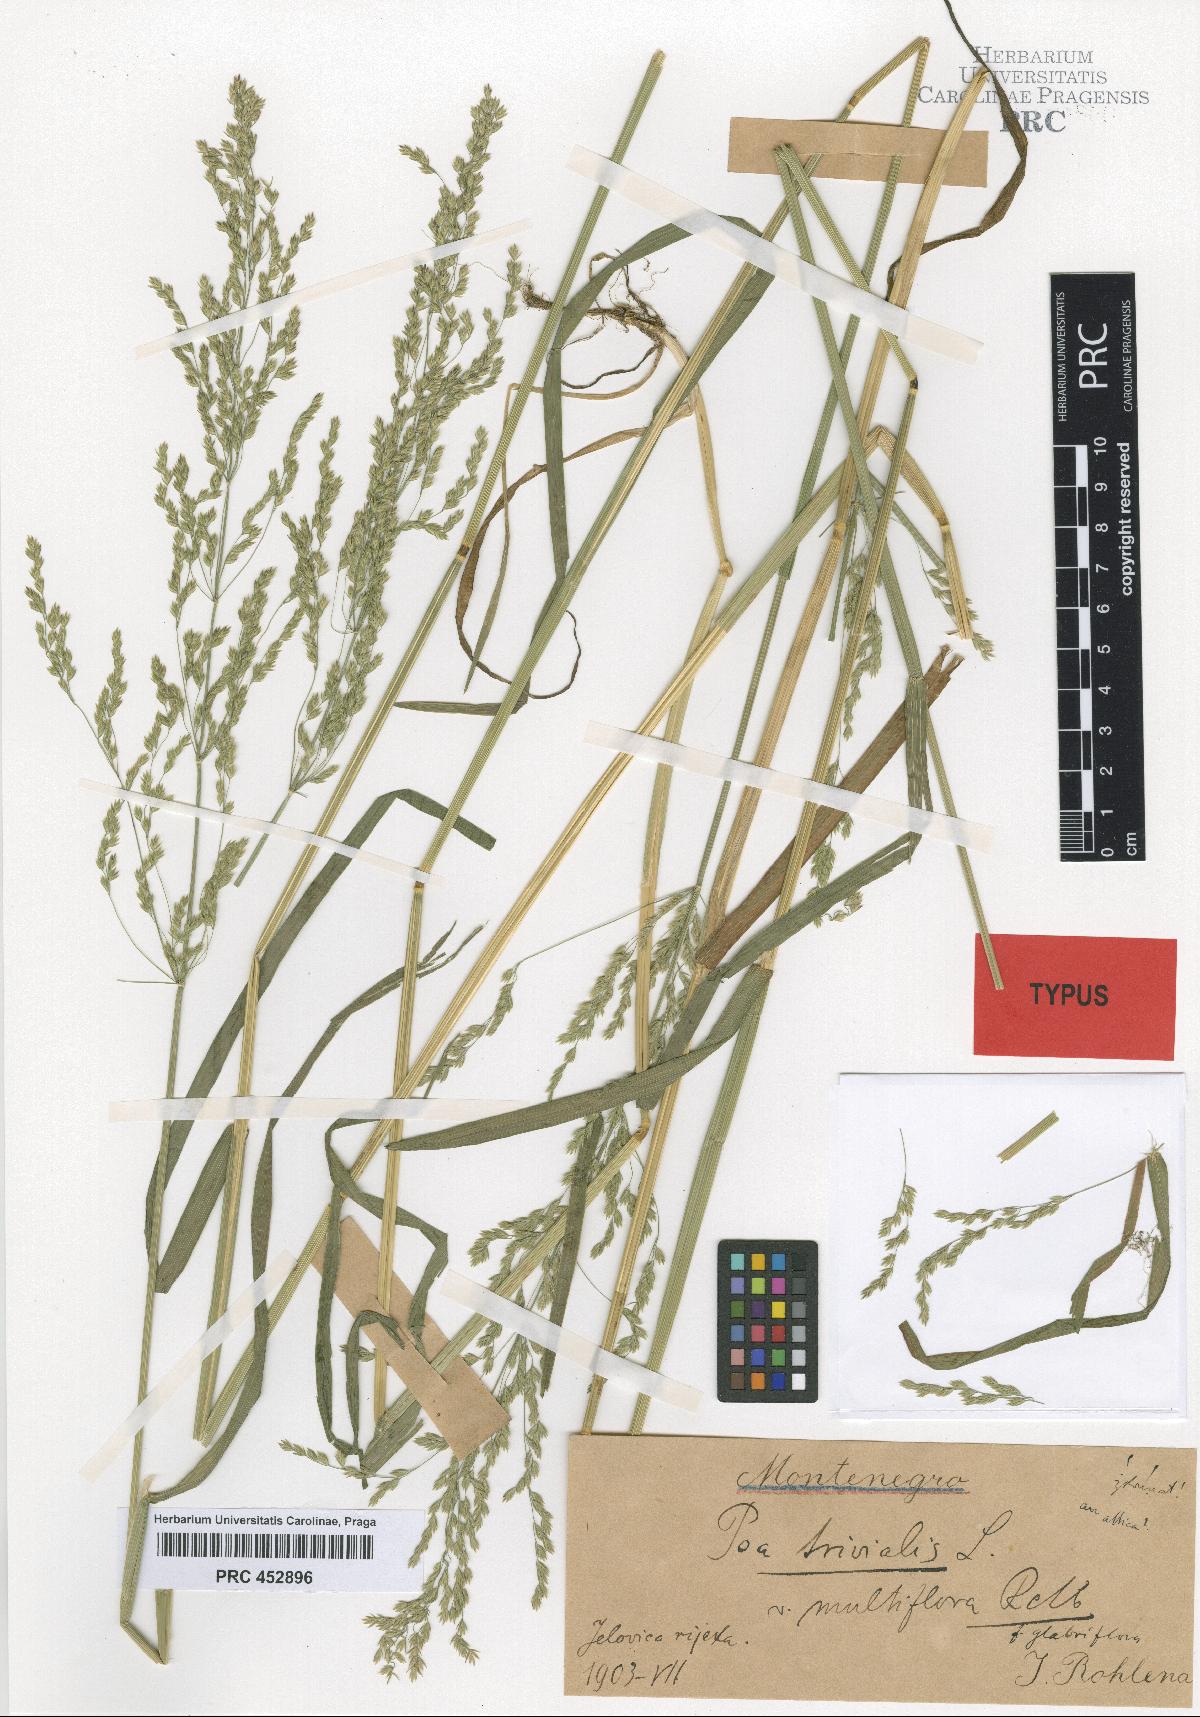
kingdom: Plantae
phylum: Tracheophyta
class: Liliopsida
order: Poales
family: Poaceae
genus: Poa
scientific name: Poa trivialis
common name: Rough bluegrass
